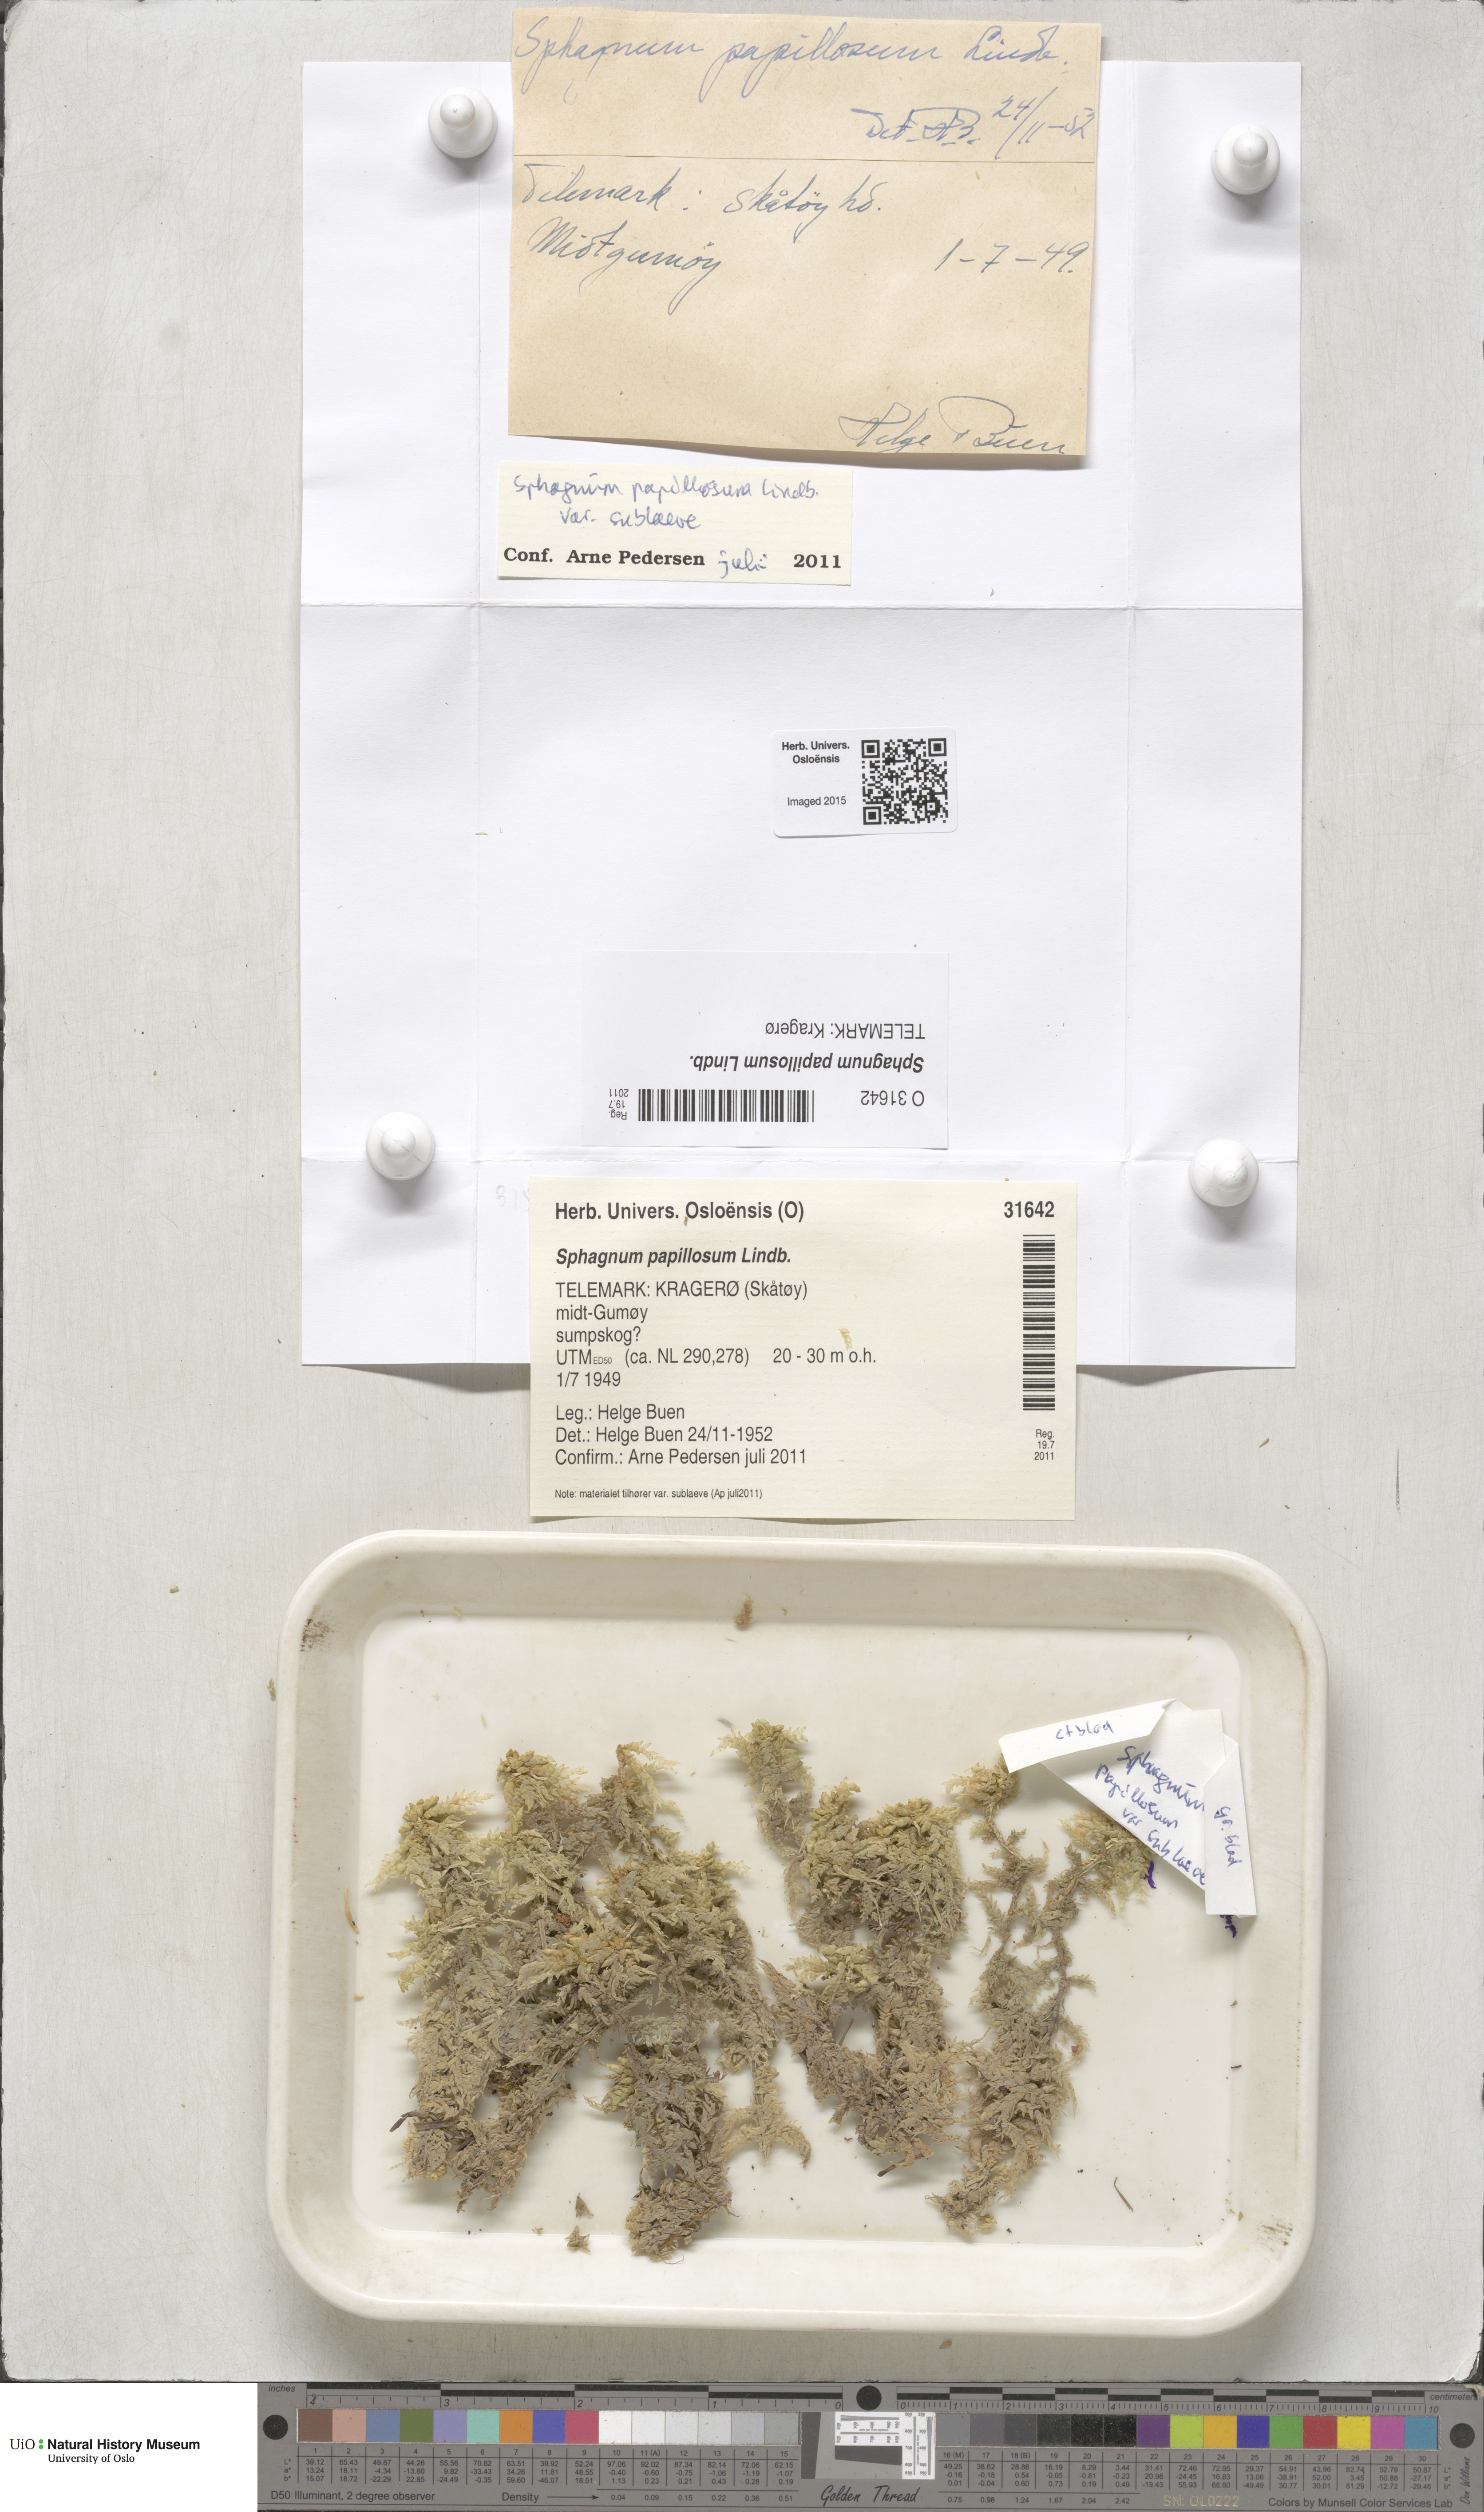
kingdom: Plantae
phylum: Bryophyta
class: Sphagnopsida
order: Sphagnales
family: Sphagnaceae
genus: Sphagnum
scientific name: Sphagnum papillosum
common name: Papillose peat moss
